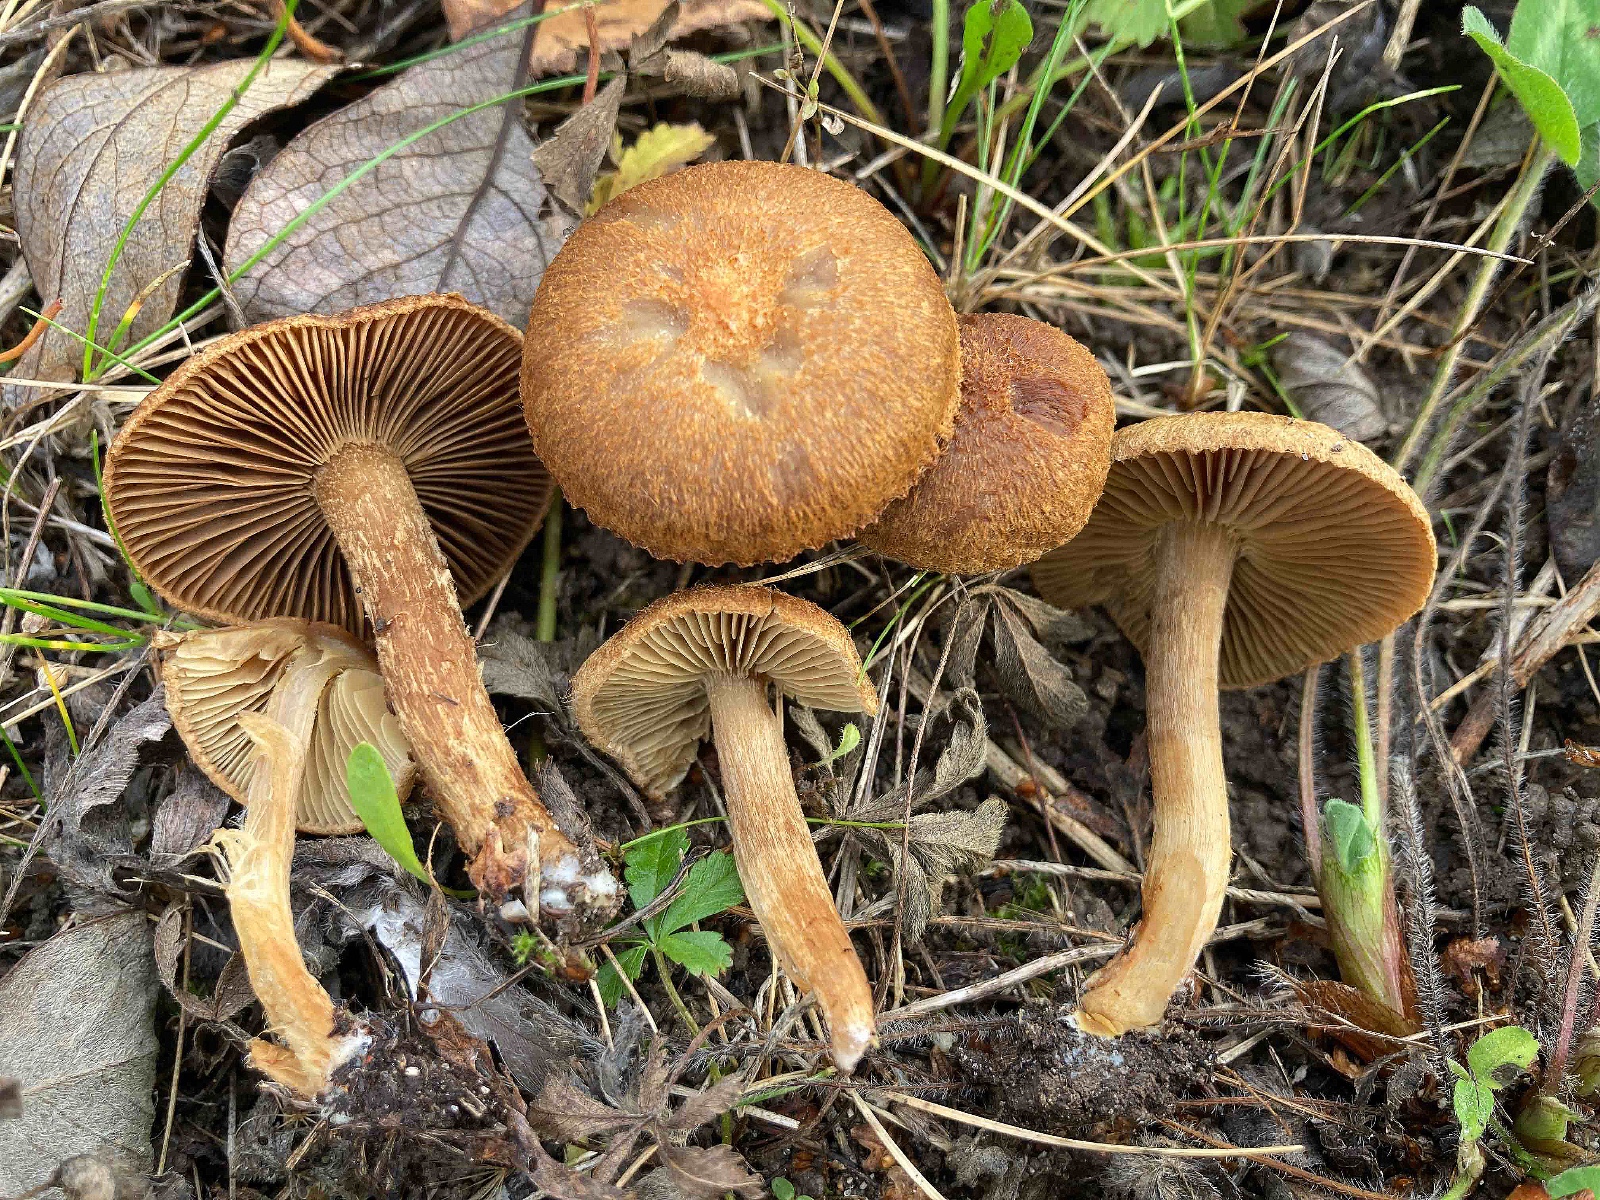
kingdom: Fungi
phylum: Basidiomycota
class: Agaricomycetes
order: Agaricales
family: Inocybaceae
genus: Mallocybe
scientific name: Mallocybe plebeia
